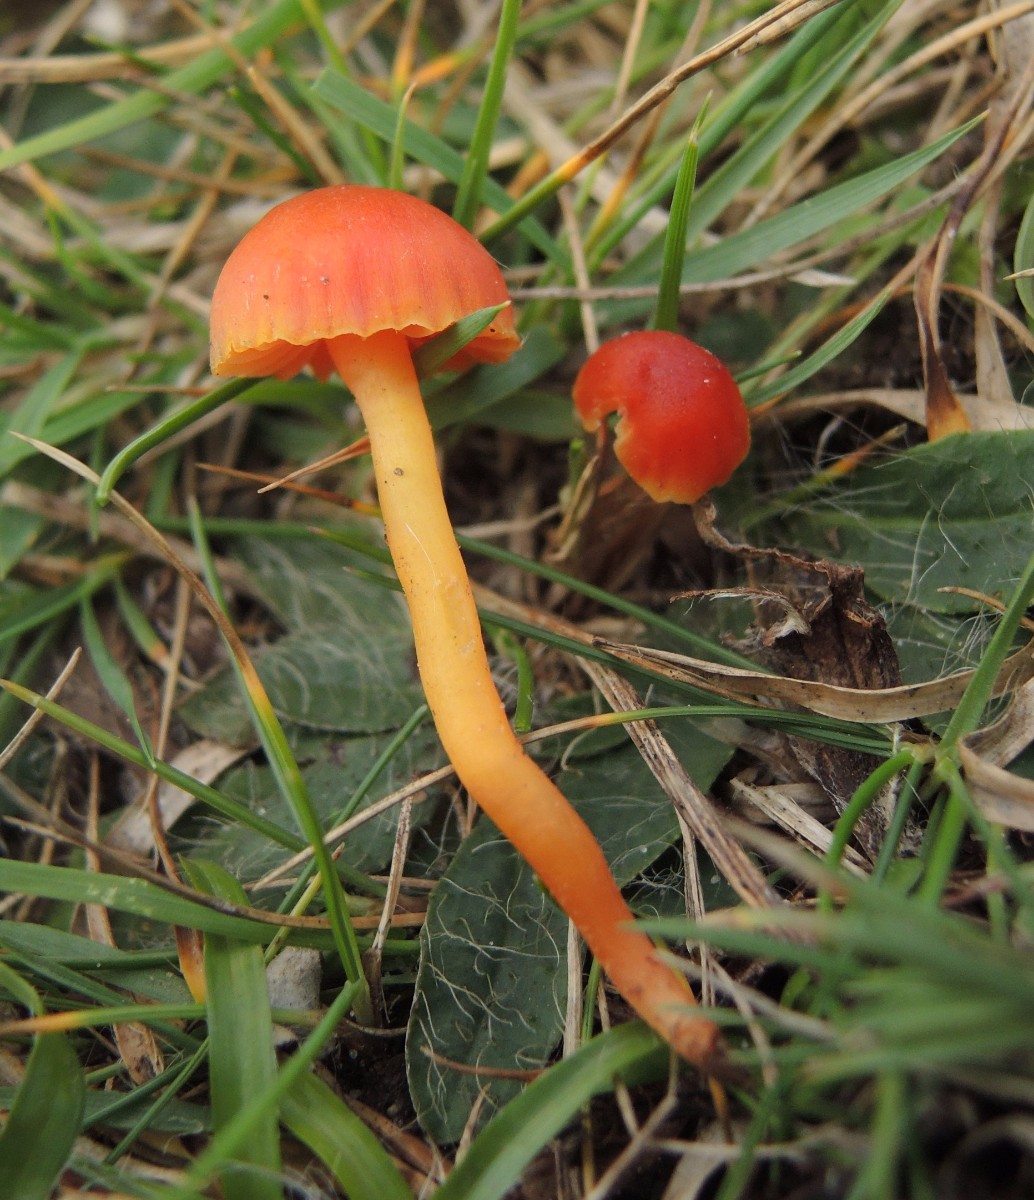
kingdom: Fungi
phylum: Basidiomycota
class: Agaricomycetes
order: Agaricales
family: Hygrophoraceae
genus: Hygrocybe
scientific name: Hygrocybe mucronella
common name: bitter vokshat
